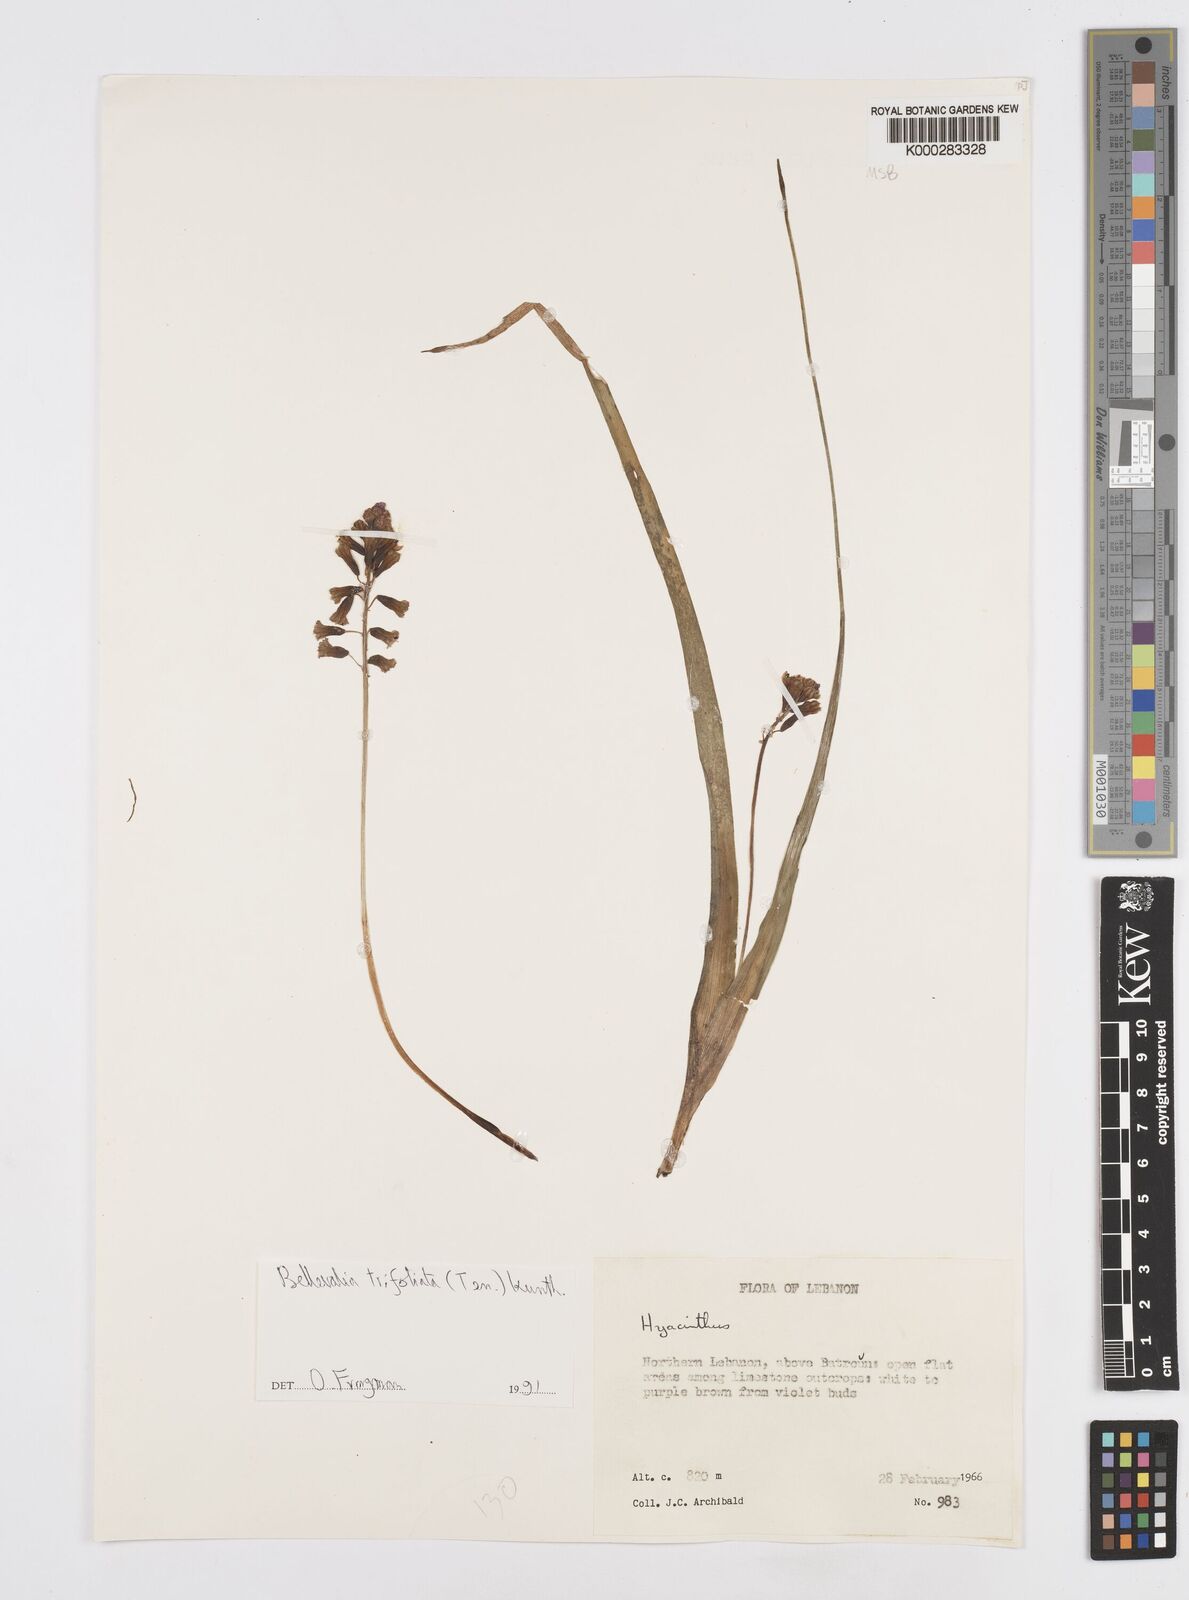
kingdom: Plantae
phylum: Tracheophyta
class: Liliopsida
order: Asparagales
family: Asparagaceae
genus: Bellevalia
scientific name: Bellevalia trifoliata
